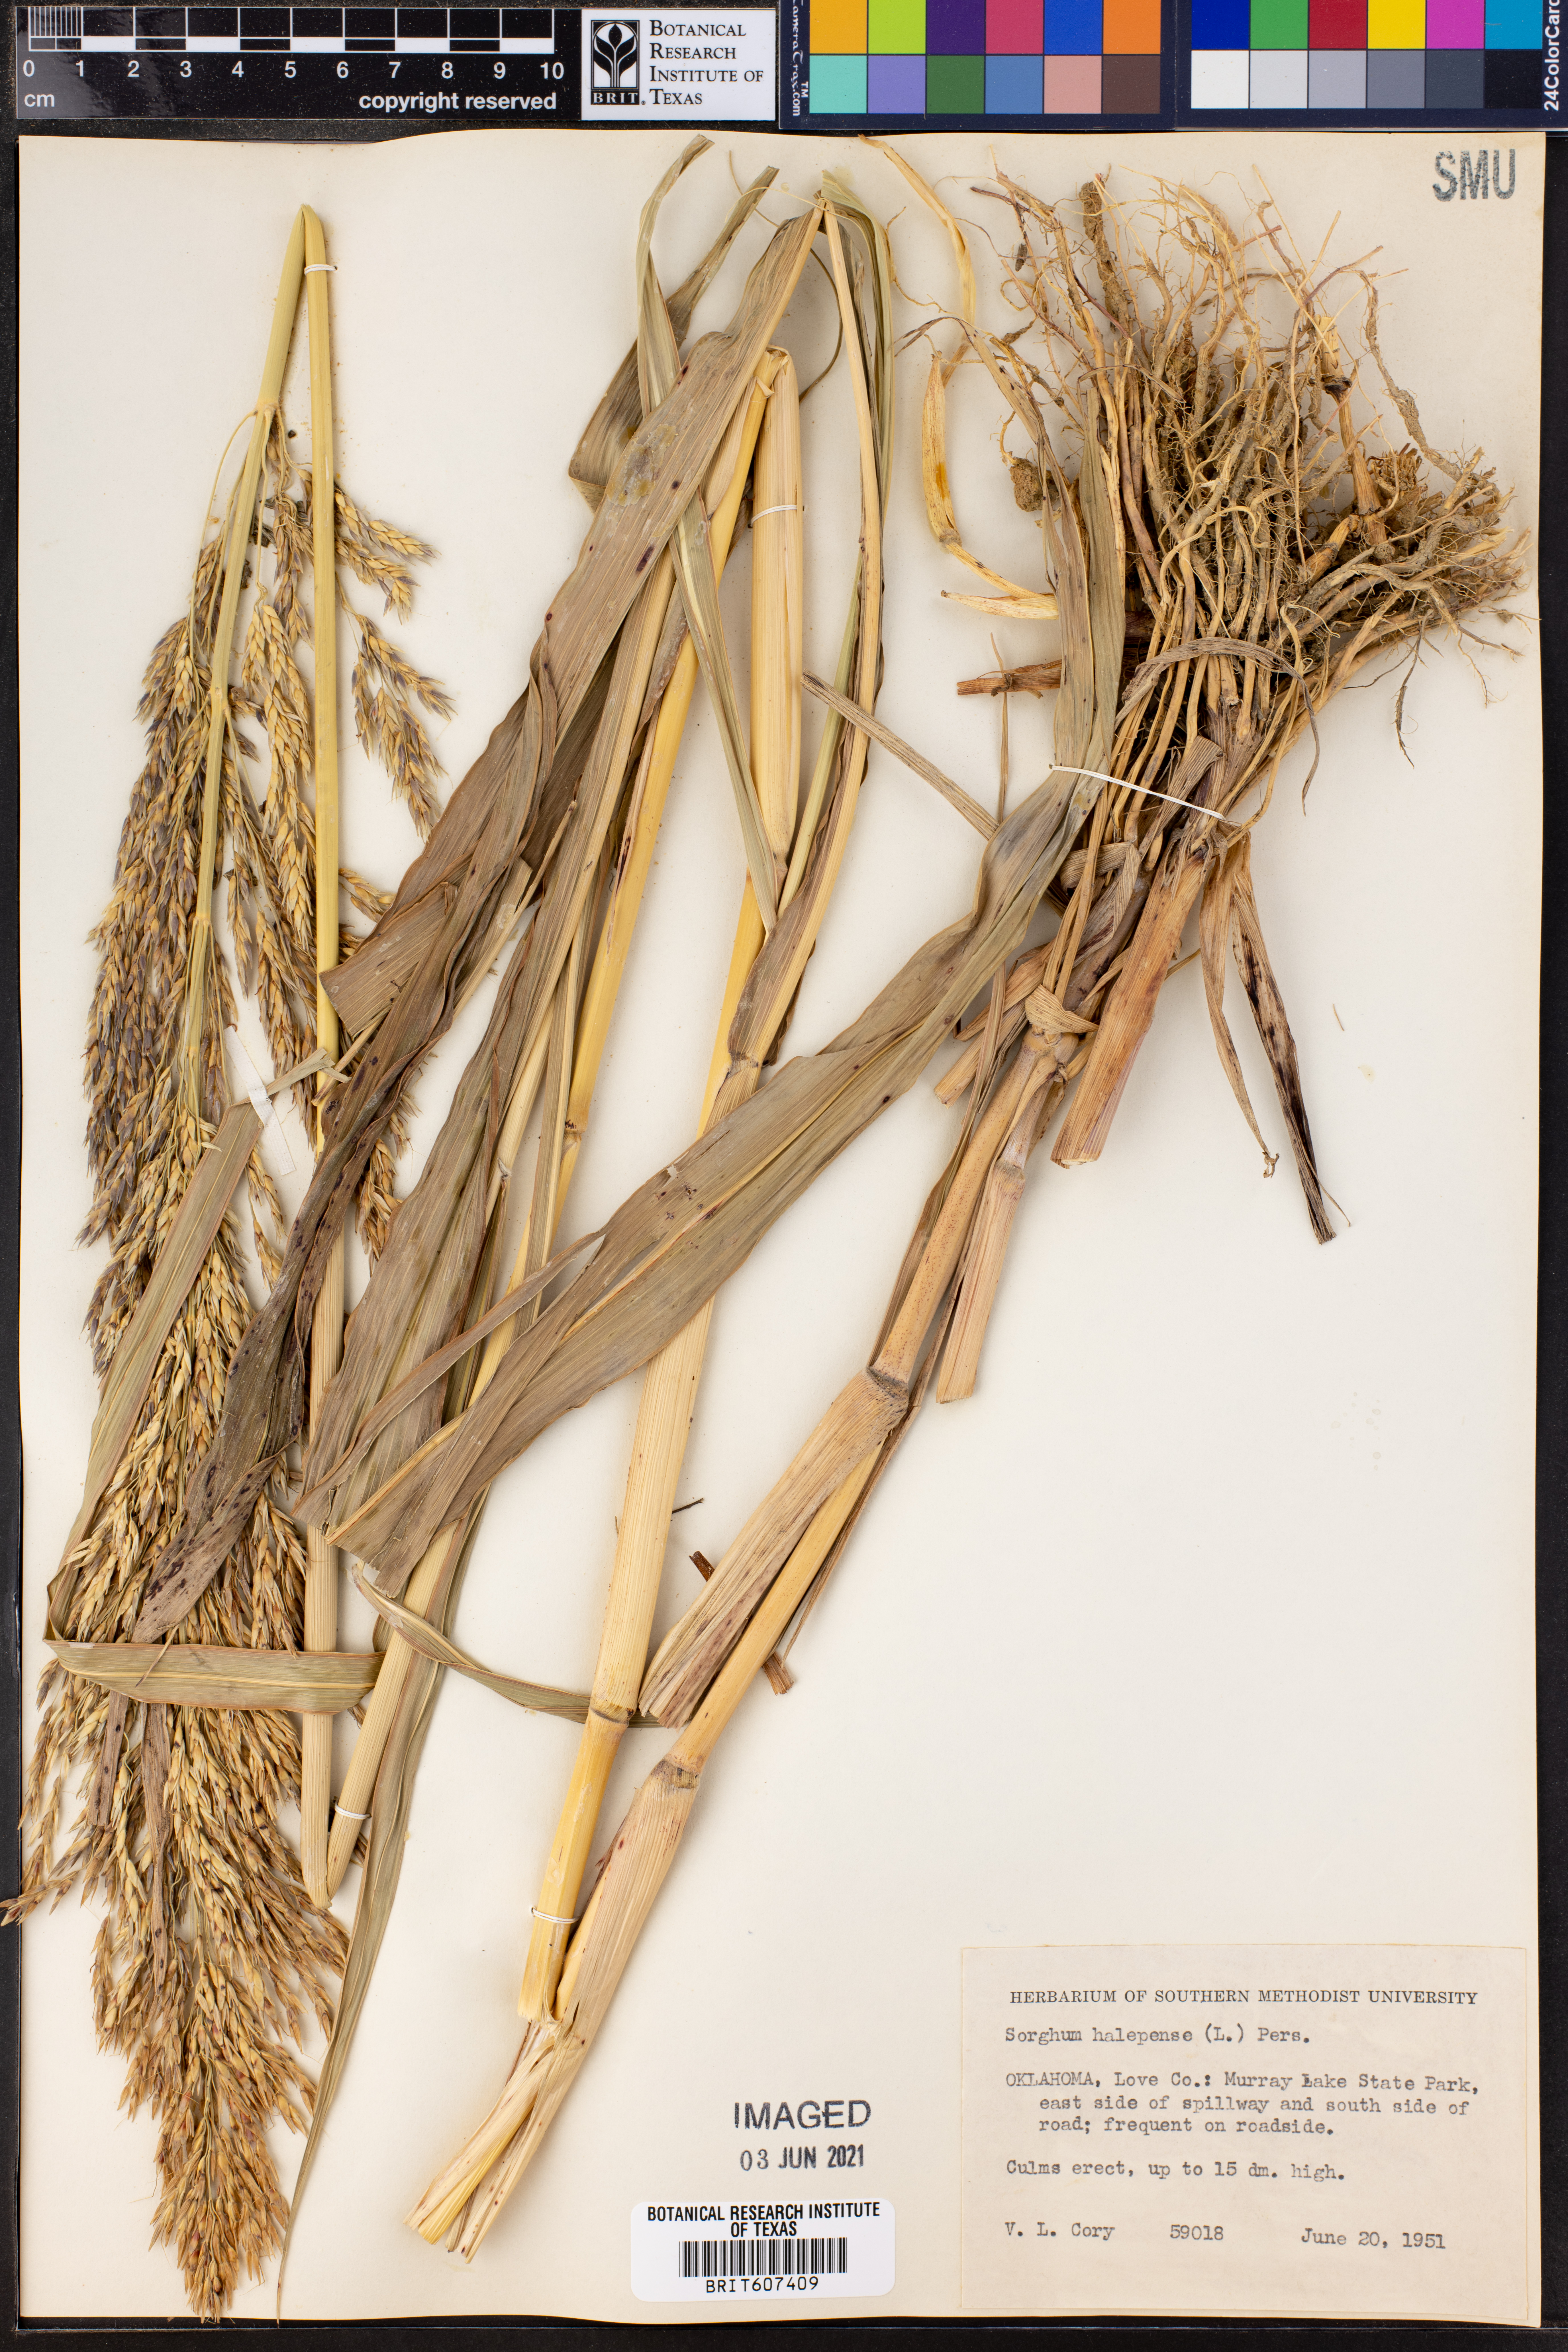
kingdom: Plantae
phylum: Tracheophyta
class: Liliopsida
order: Poales
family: Poaceae
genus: Sorghum
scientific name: Sorghum halepense
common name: Johnson-grass
